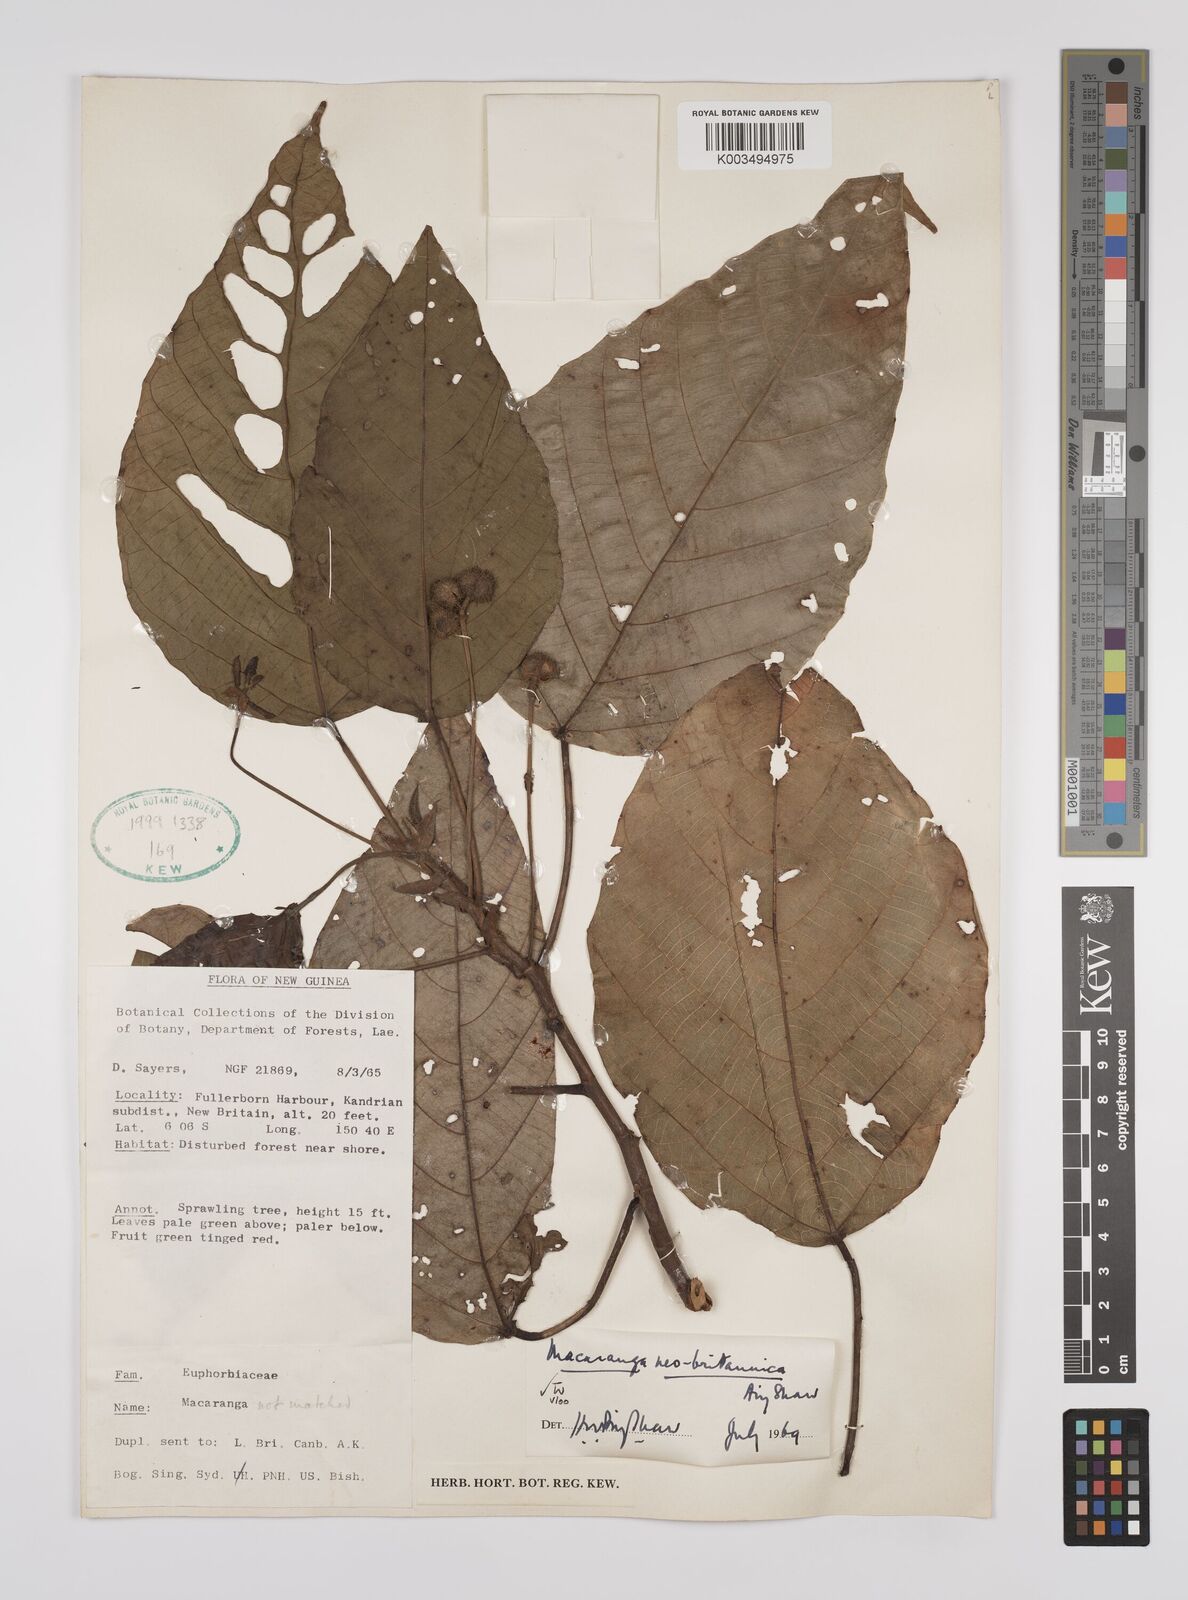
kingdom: Plantae
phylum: Tracheophyta
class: Magnoliopsida
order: Malpighiales
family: Euphorbiaceae
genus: Macaranga
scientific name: Macaranga neobritannica
